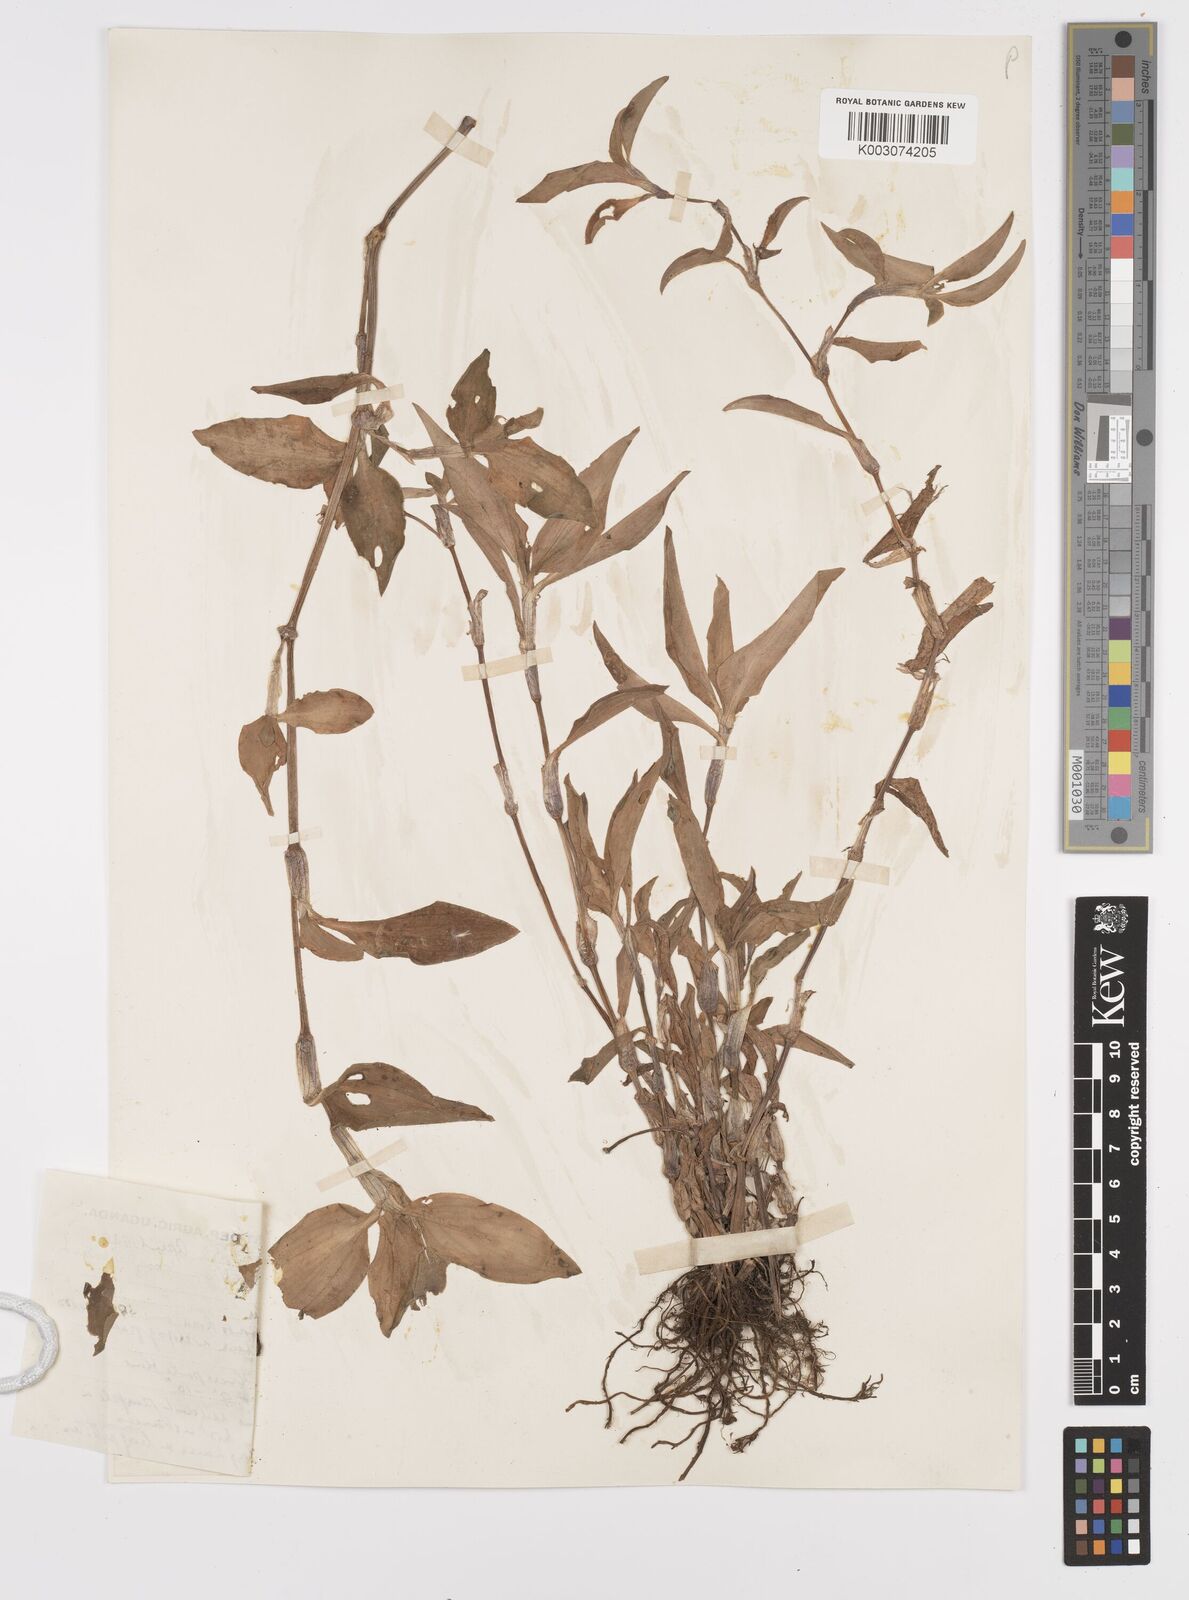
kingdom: Plantae
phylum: Tracheophyta
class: Liliopsida
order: Commelinales
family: Commelinaceae
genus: Commelina
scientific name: Commelina benghalensis
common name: Jio
